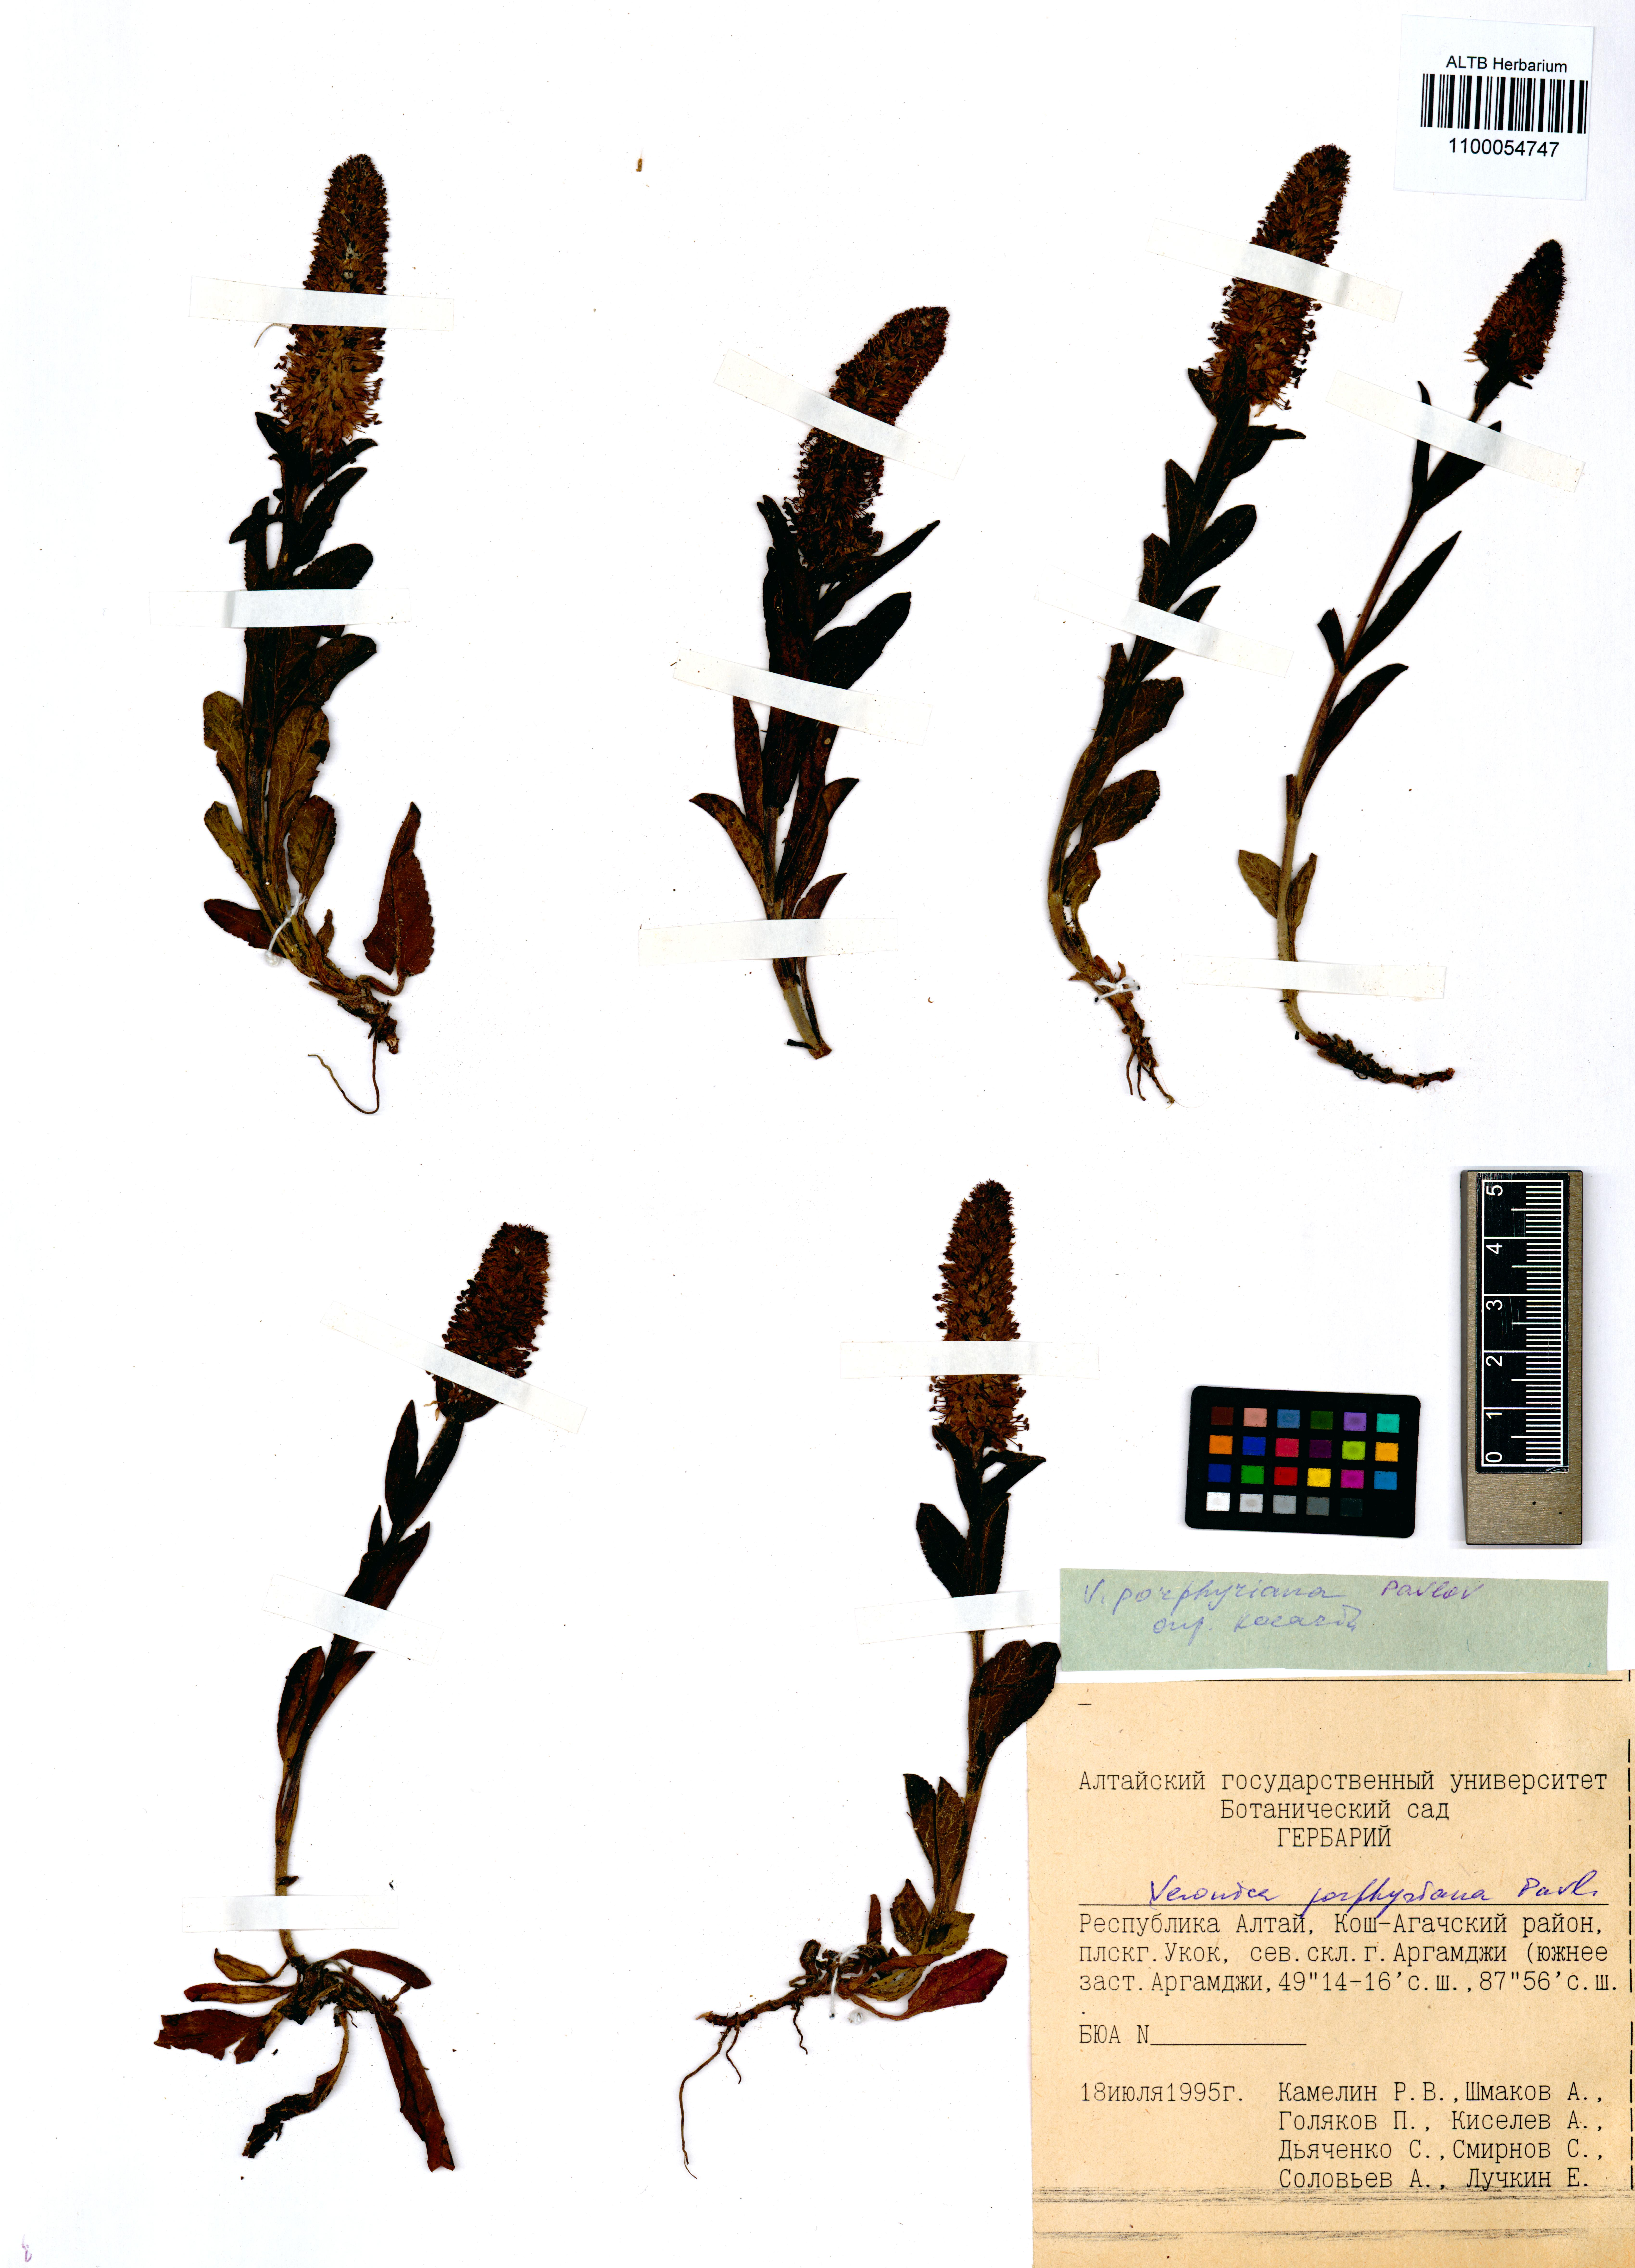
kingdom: Plantae
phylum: Tracheophyta
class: Magnoliopsida
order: Lamiales
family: Plantaginaceae
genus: Veronica
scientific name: Veronica porphyriana
